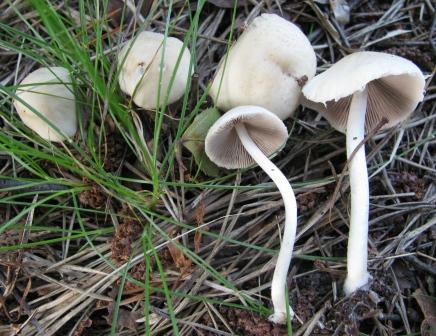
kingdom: Fungi
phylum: Basidiomycota
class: Agaricomycetes
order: Agaricales
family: Psathyrellaceae
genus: Candolleomyces
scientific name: Candolleomyces candolleanus
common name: Candolles mørkhat
